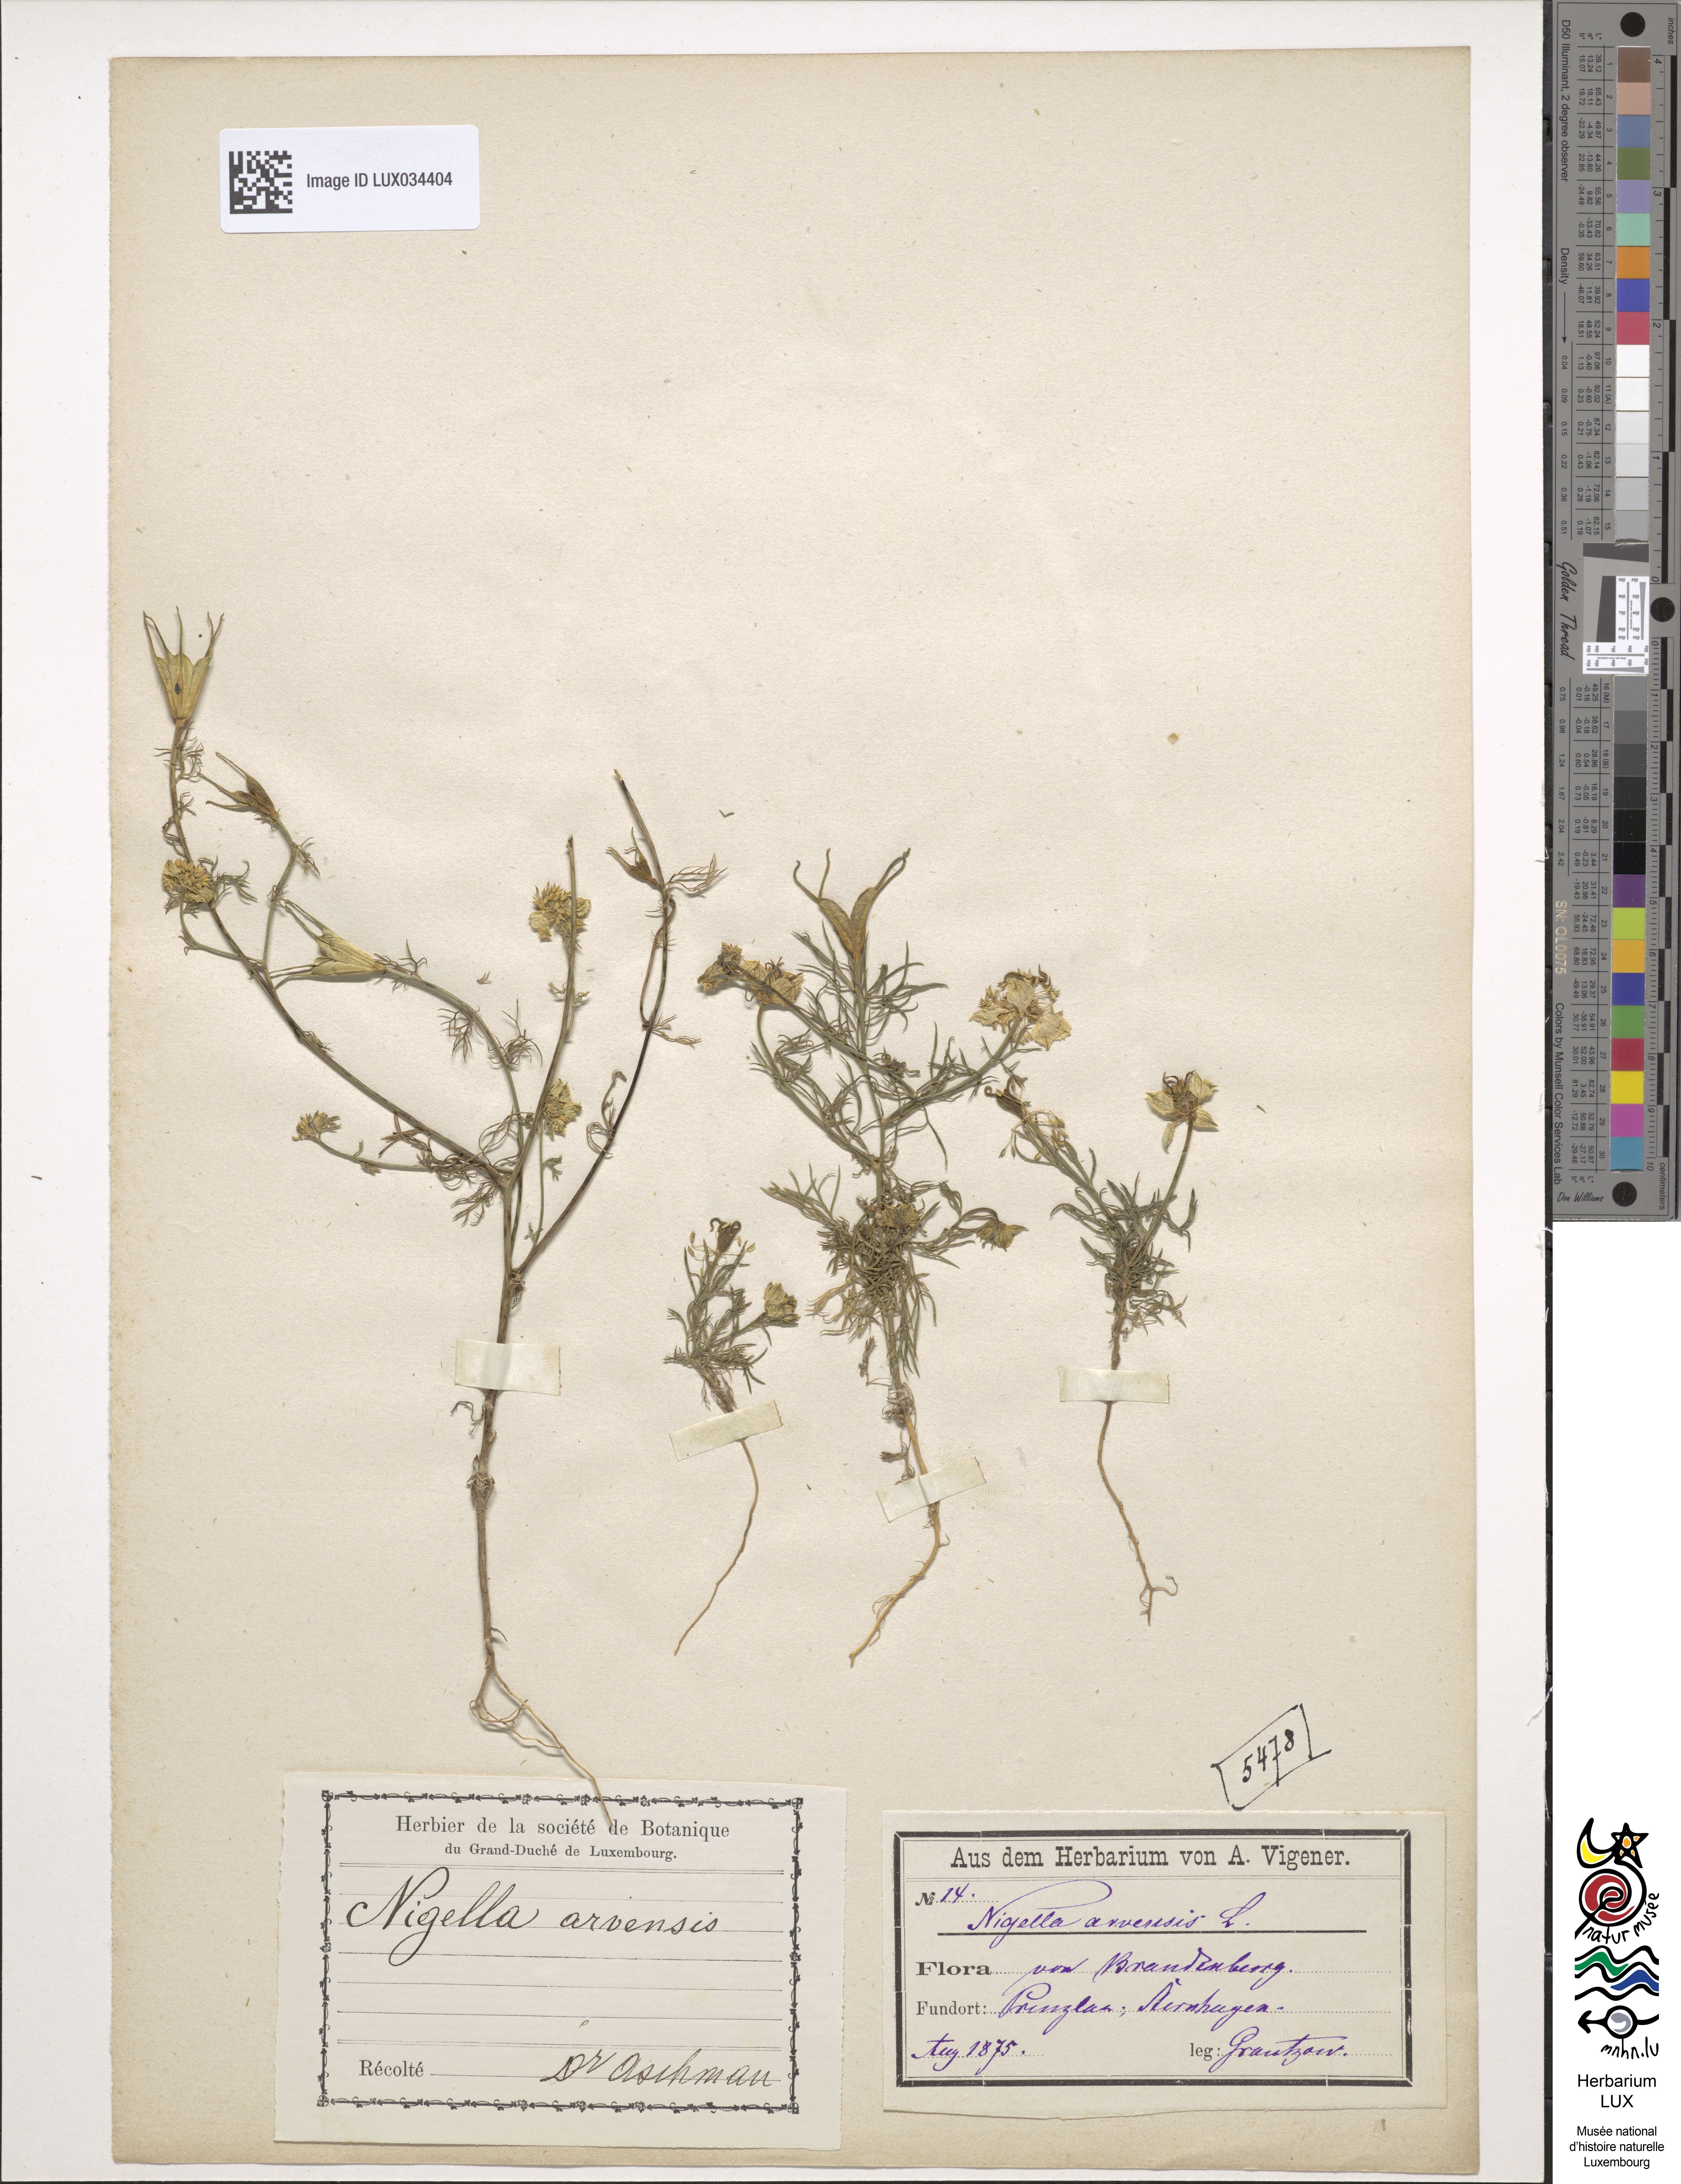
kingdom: Plantae
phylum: Tracheophyta
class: Magnoliopsida
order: Ranunculales
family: Ranunculaceae
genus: Nigella
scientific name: Nigella arvensis
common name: Wild fennel-flower
